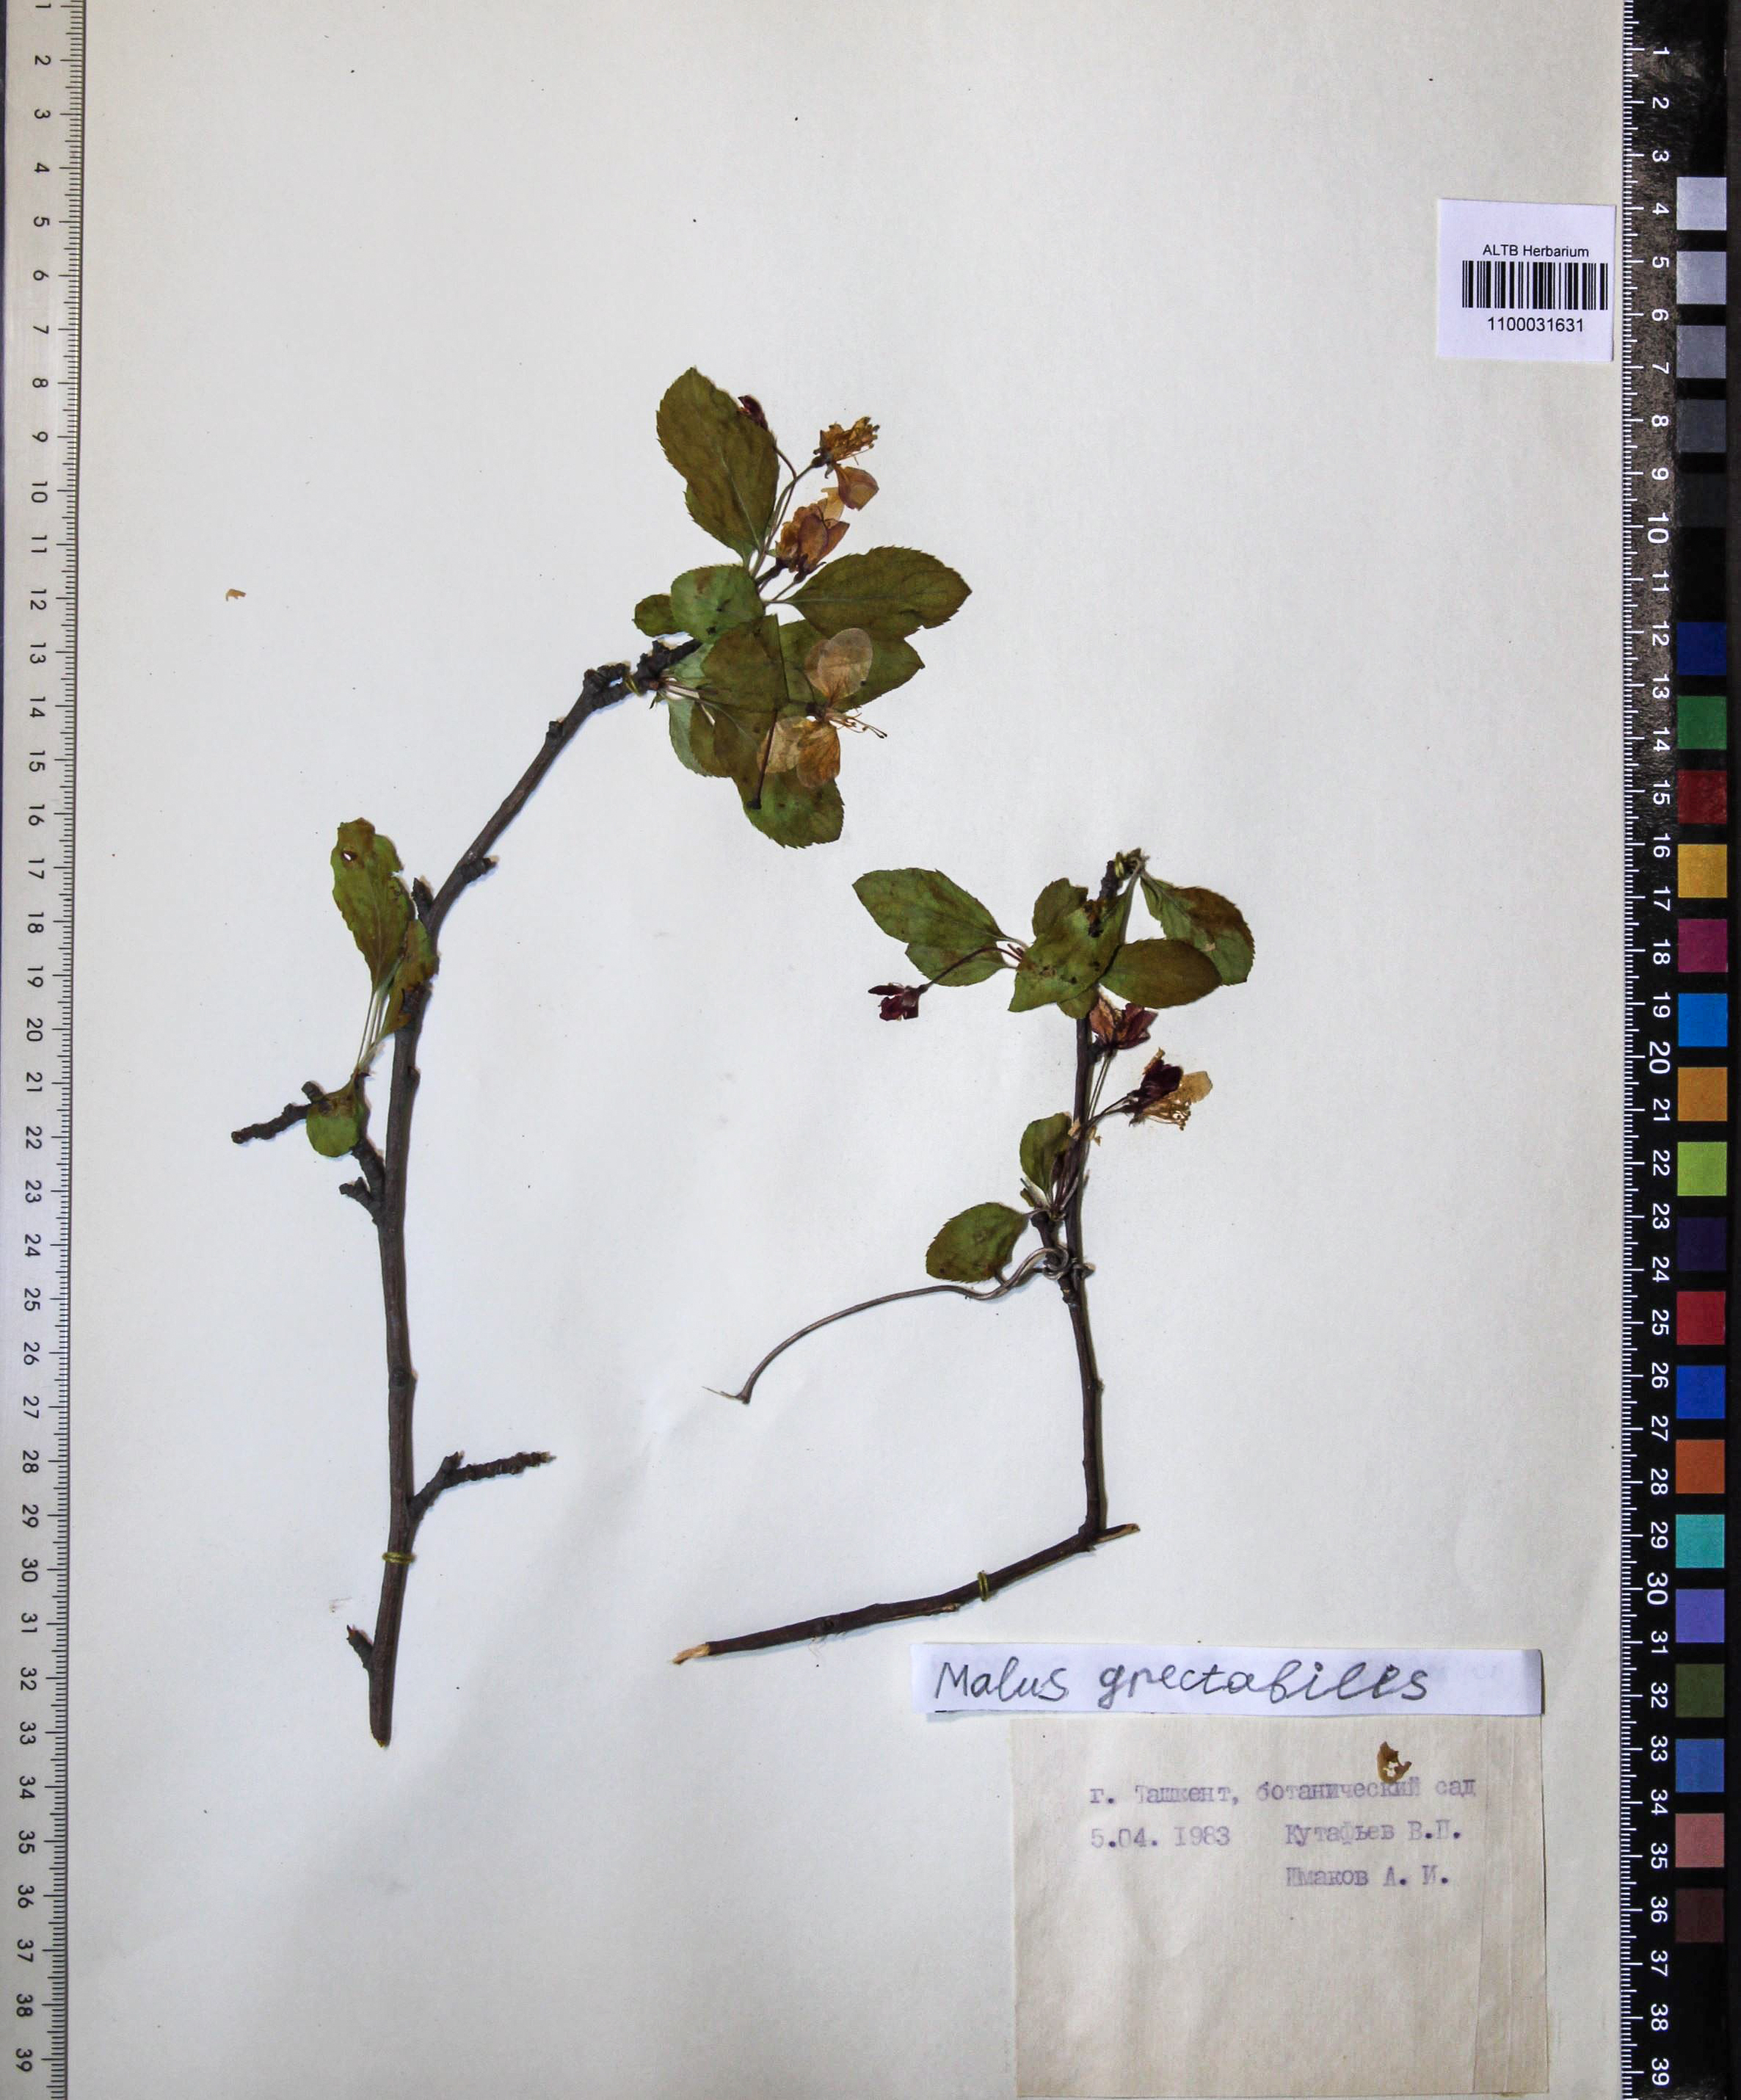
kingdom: Plantae
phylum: Tracheophyta
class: Magnoliopsida
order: Rosales
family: Rosaceae
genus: Malus
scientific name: Malus
